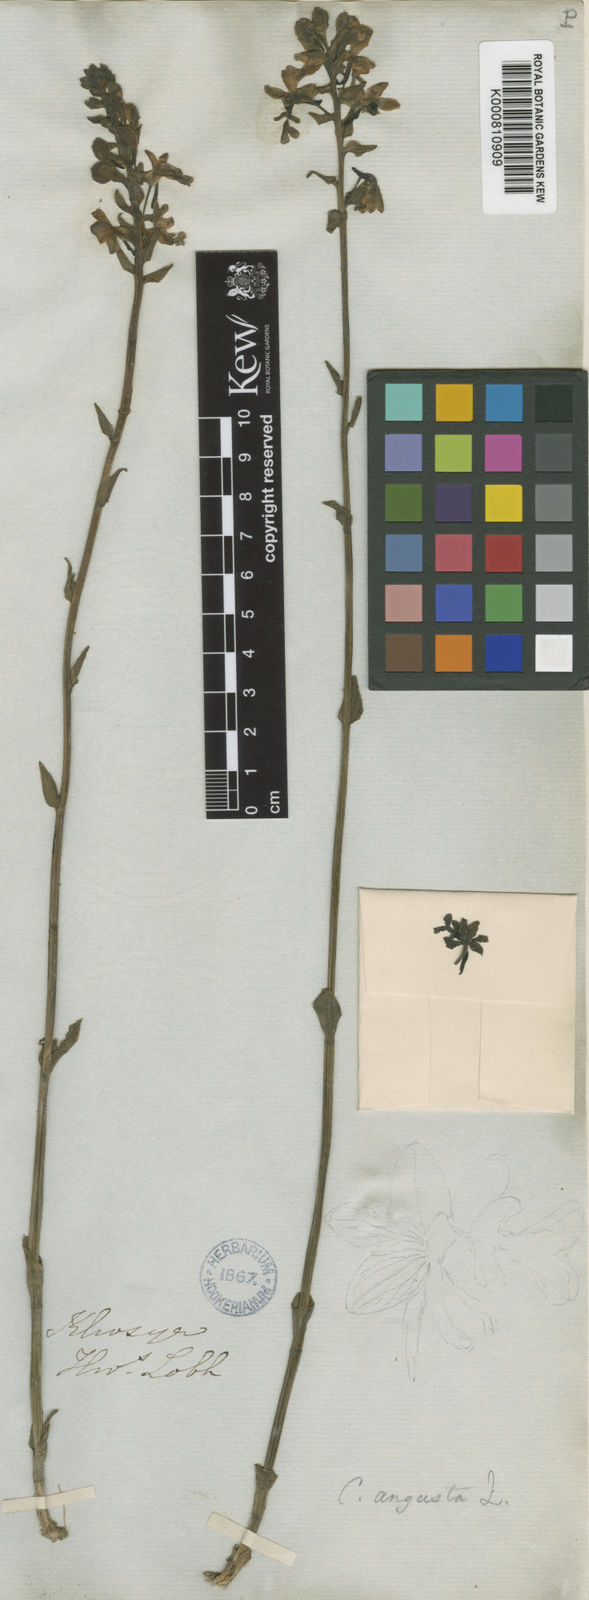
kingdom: Plantae
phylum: Tracheophyta
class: Liliopsida
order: Asparagales
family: Orchidaceae
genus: Calanthe
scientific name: Calanthe odora
